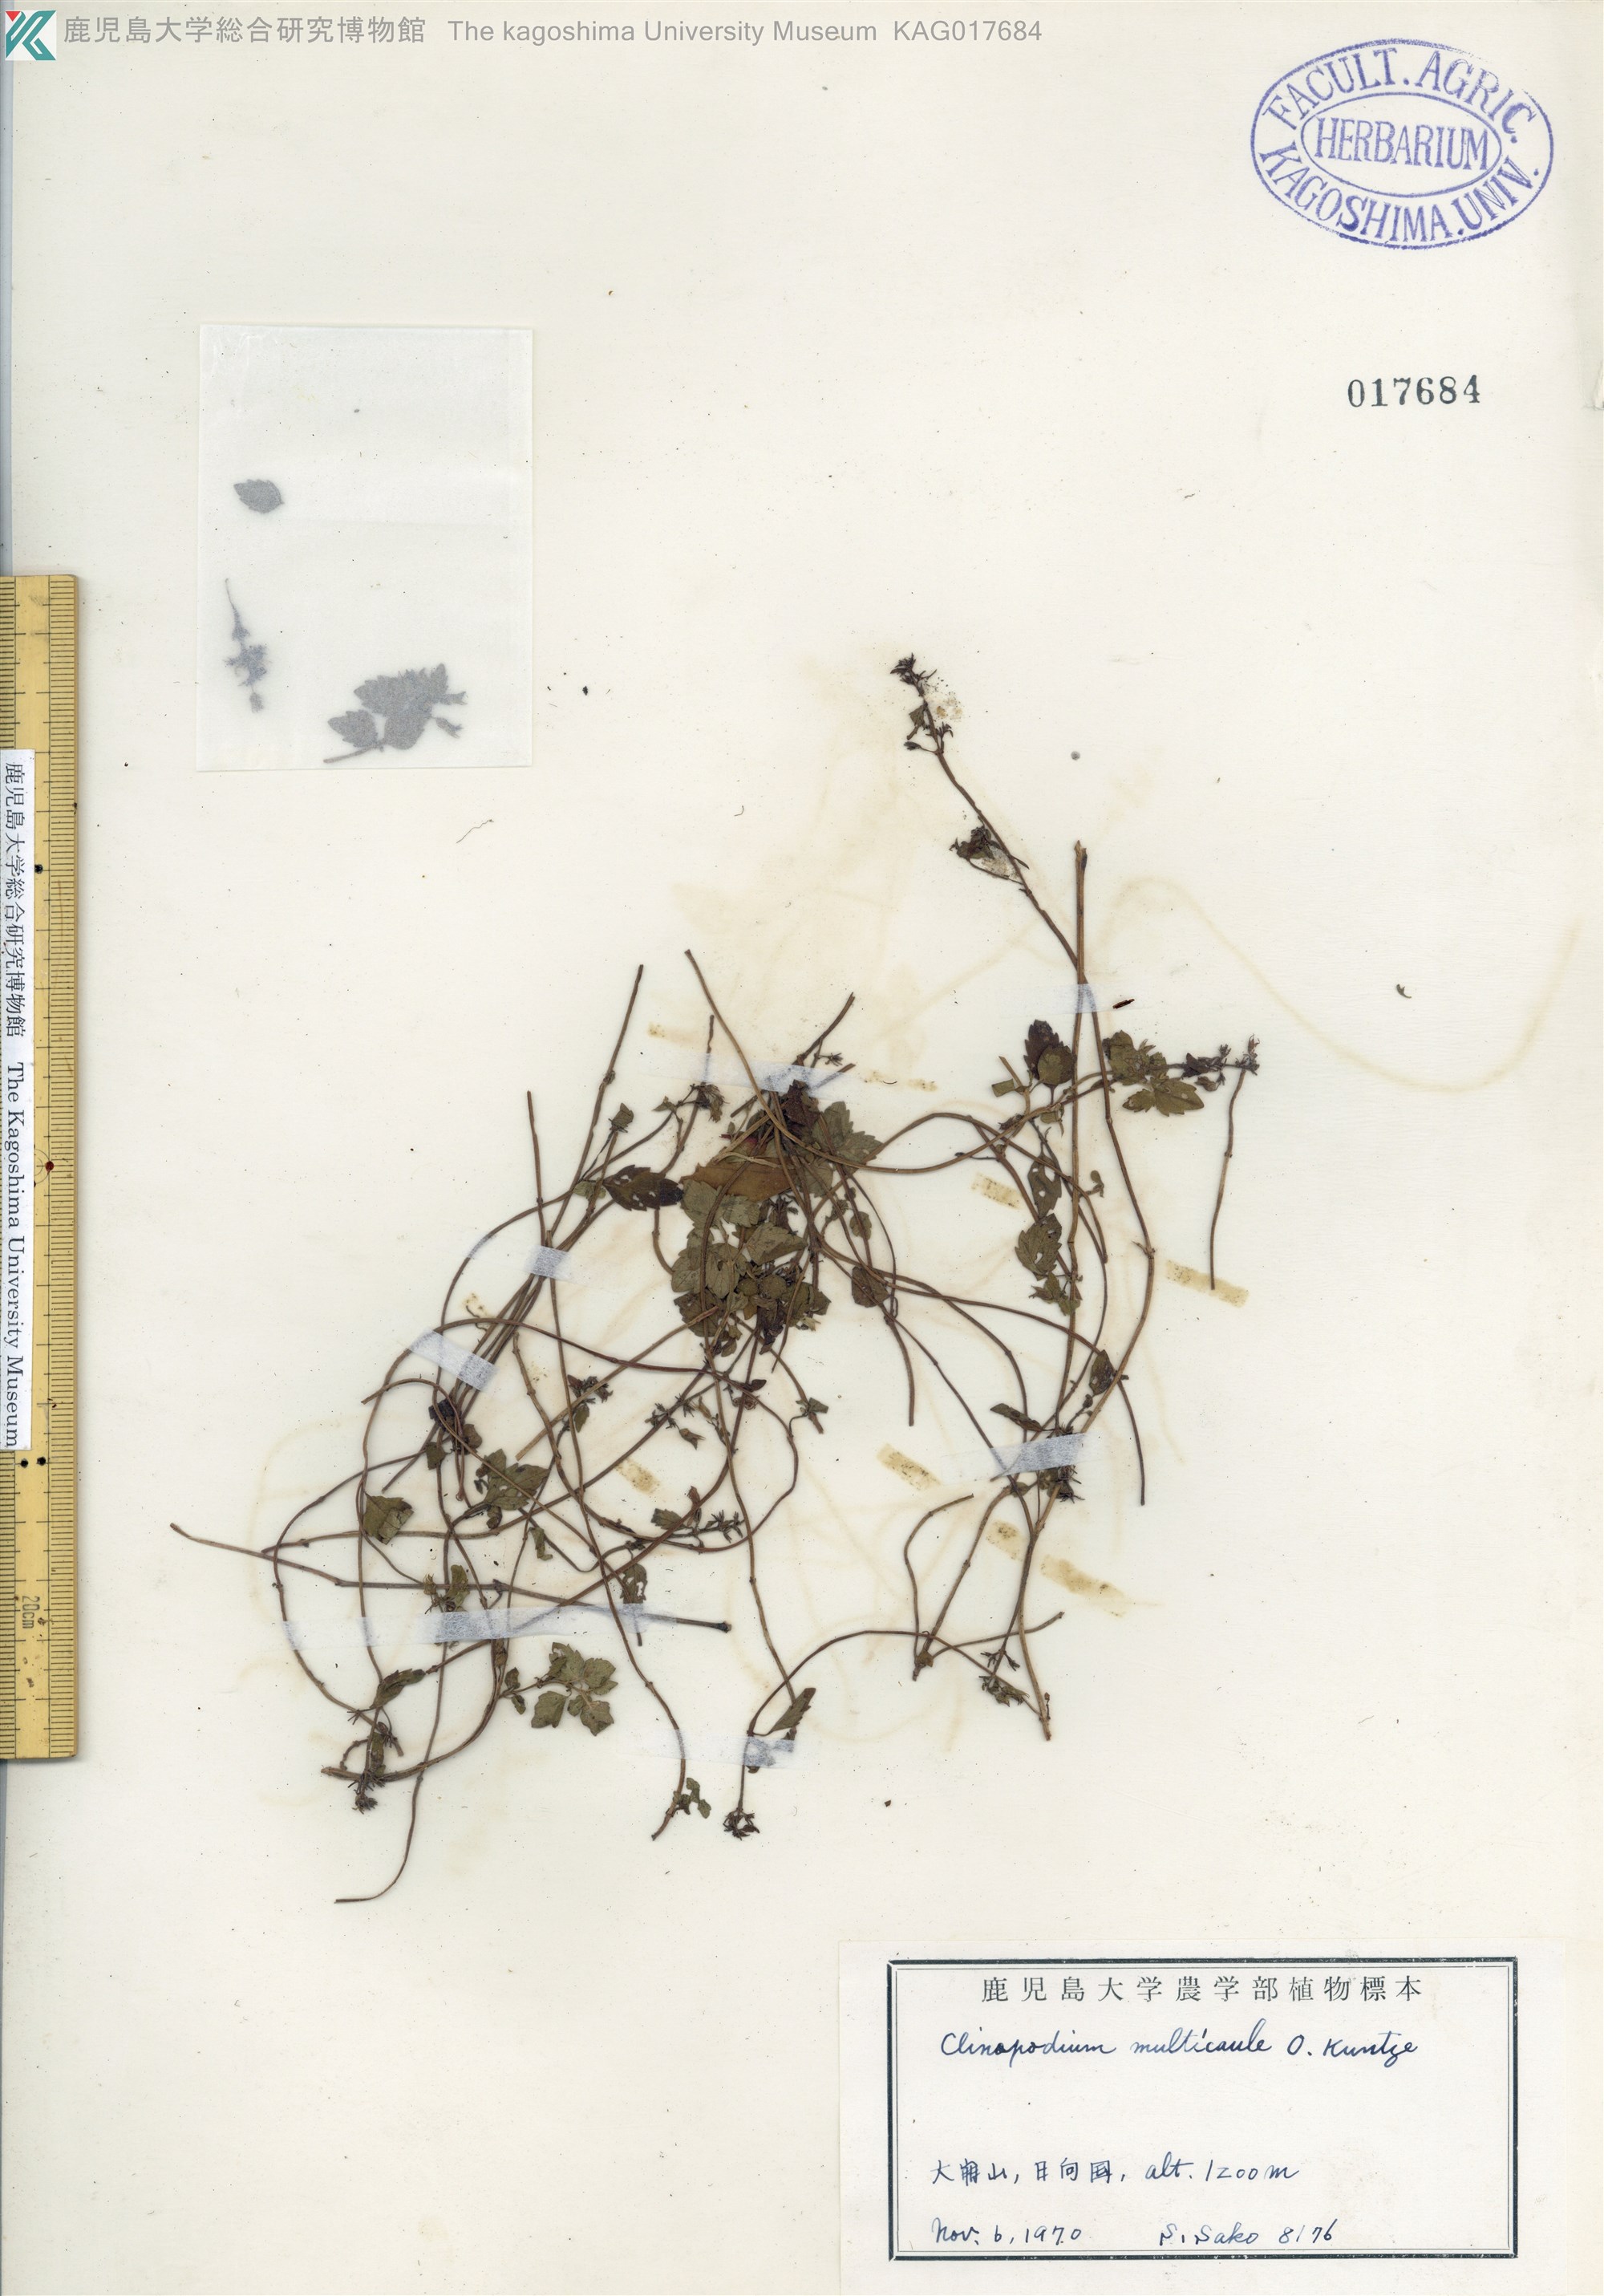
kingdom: Plantae
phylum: Tracheophyta
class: Magnoliopsida
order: Lamiales
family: Lamiaceae
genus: Clinopodium
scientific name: Clinopodium multicaule
